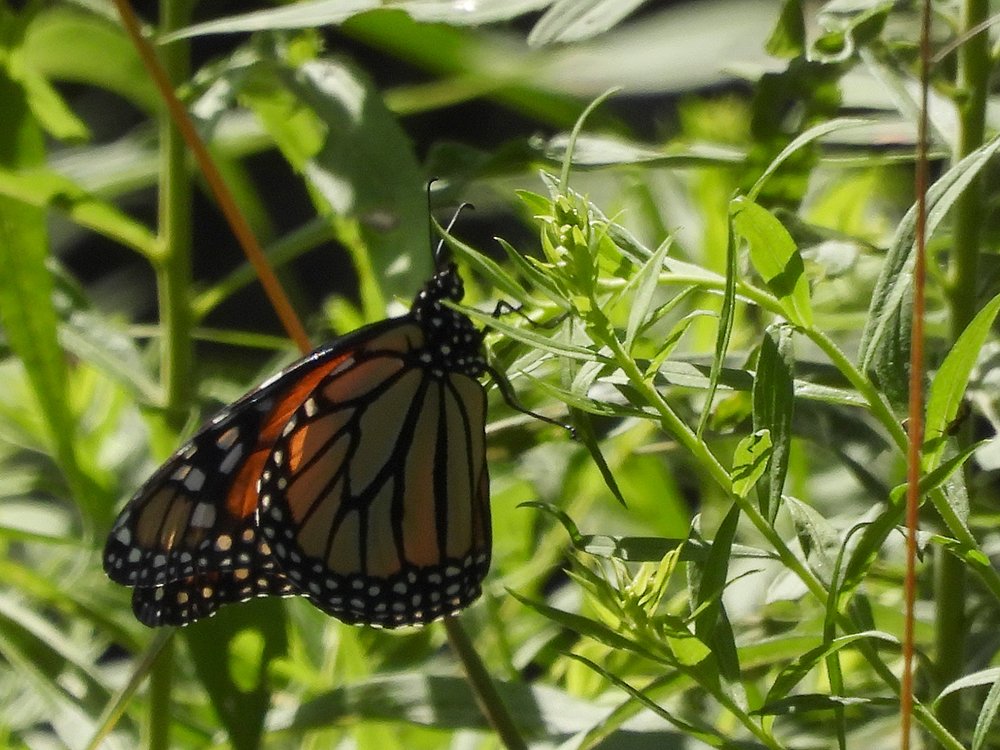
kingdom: Animalia
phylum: Arthropoda
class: Insecta
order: Lepidoptera
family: Nymphalidae
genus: Danaus
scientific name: Danaus plexippus
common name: Monarch
